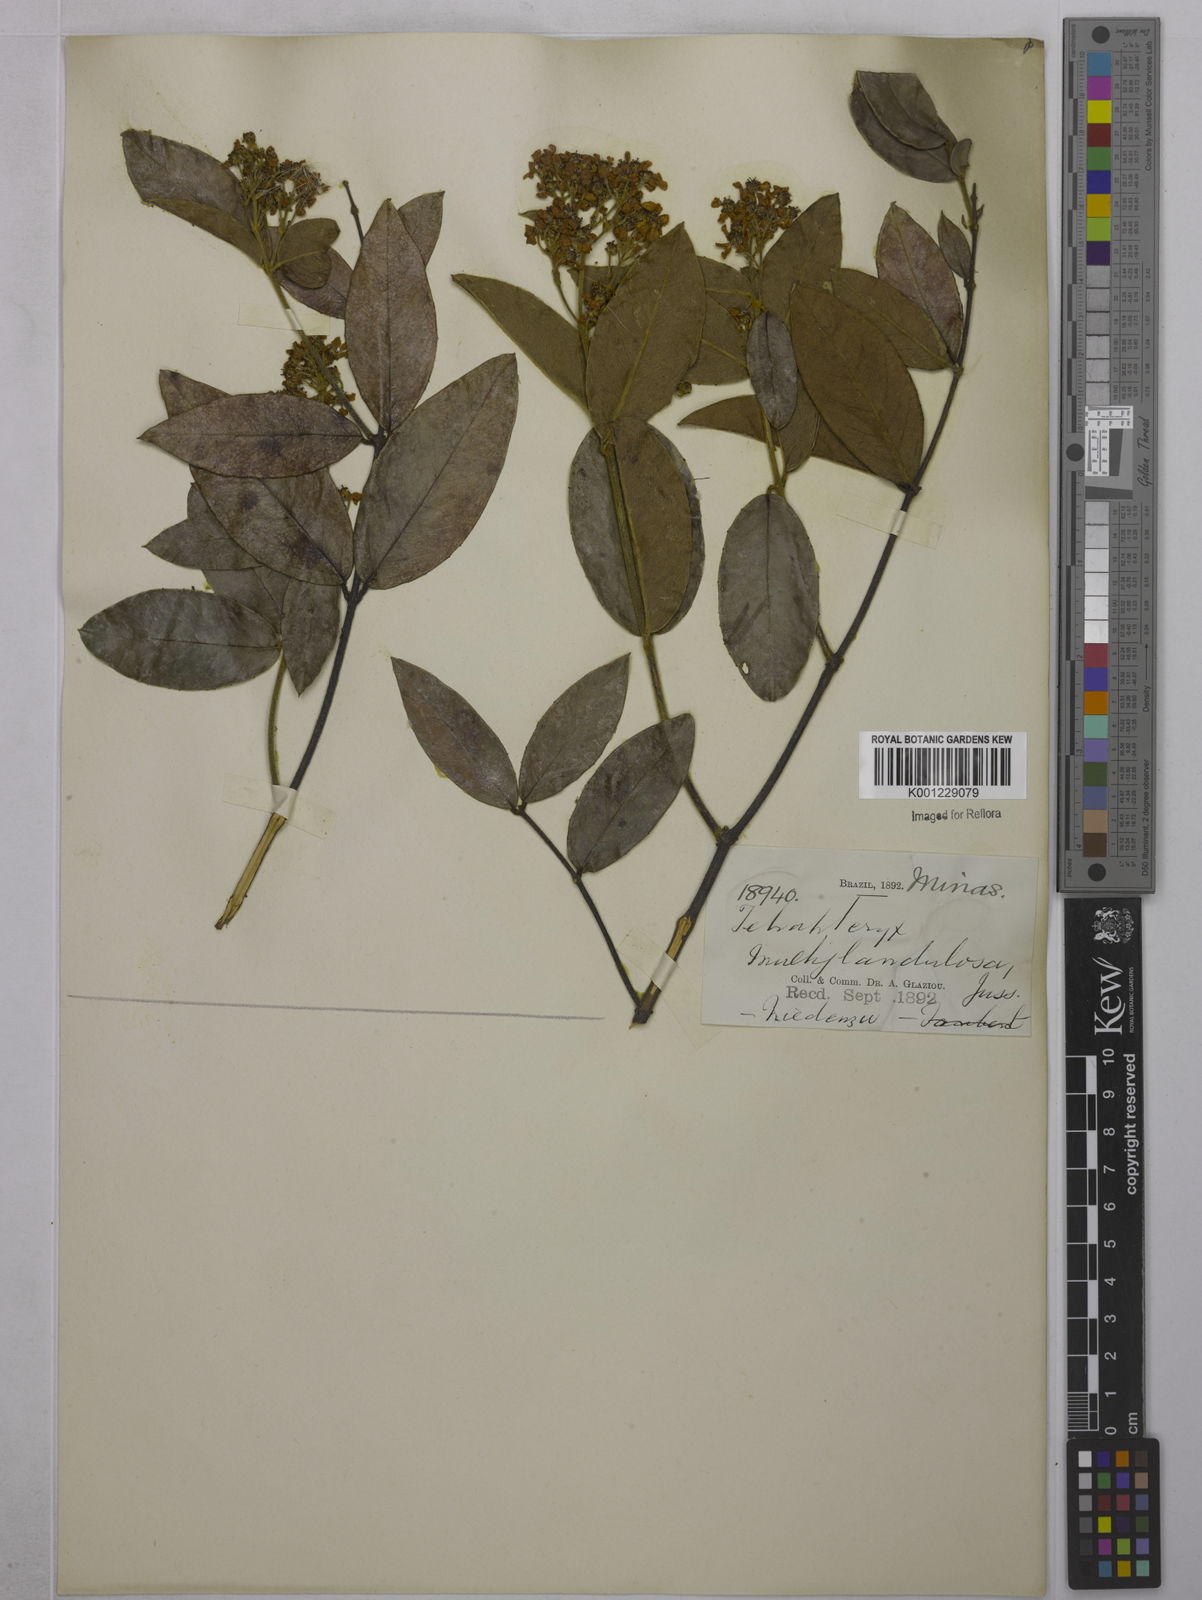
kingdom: Plantae
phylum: Tracheophyta
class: Magnoliopsida
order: Malpighiales
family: Malpighiaceae
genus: Niedenzuella
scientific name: Niedenzuella multiglandulosa
